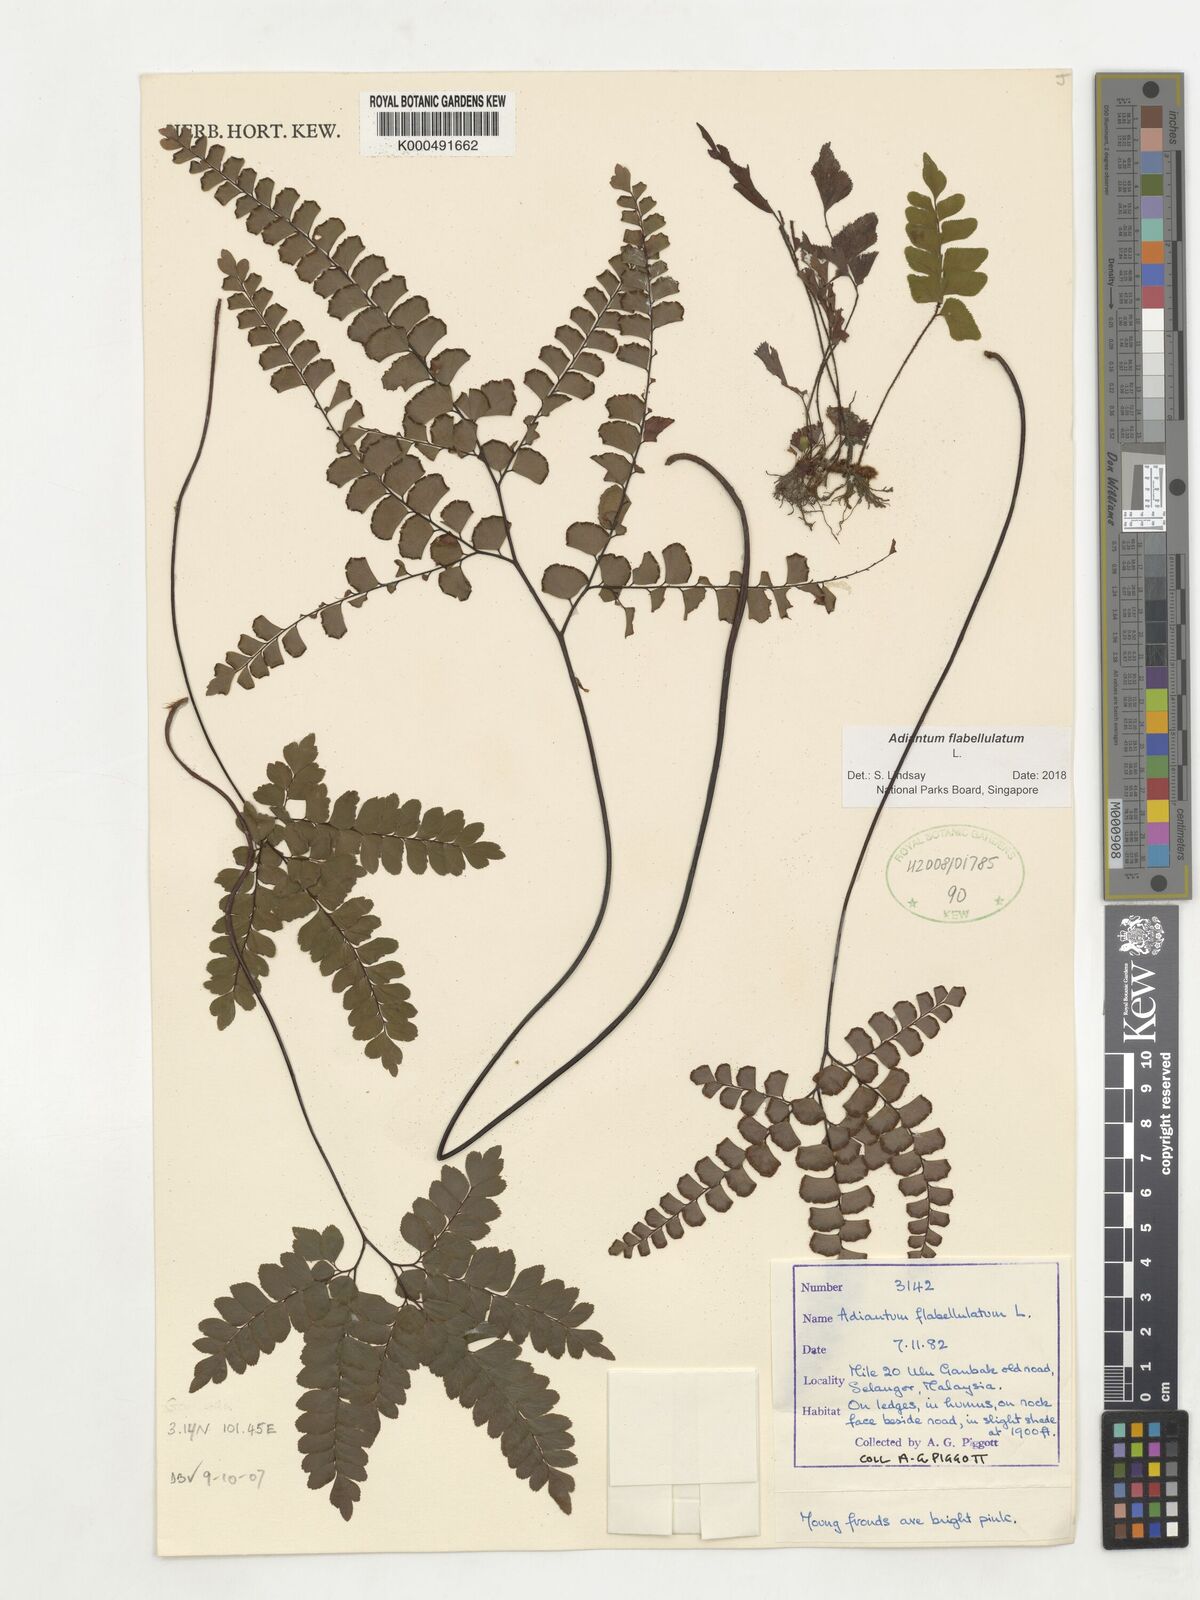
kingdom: Plantae
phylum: Tracheophyta
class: Polypodiopsida
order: Polypodiales
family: Pteridaceae
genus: Adiantum
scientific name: Adiantum flabellulatum
